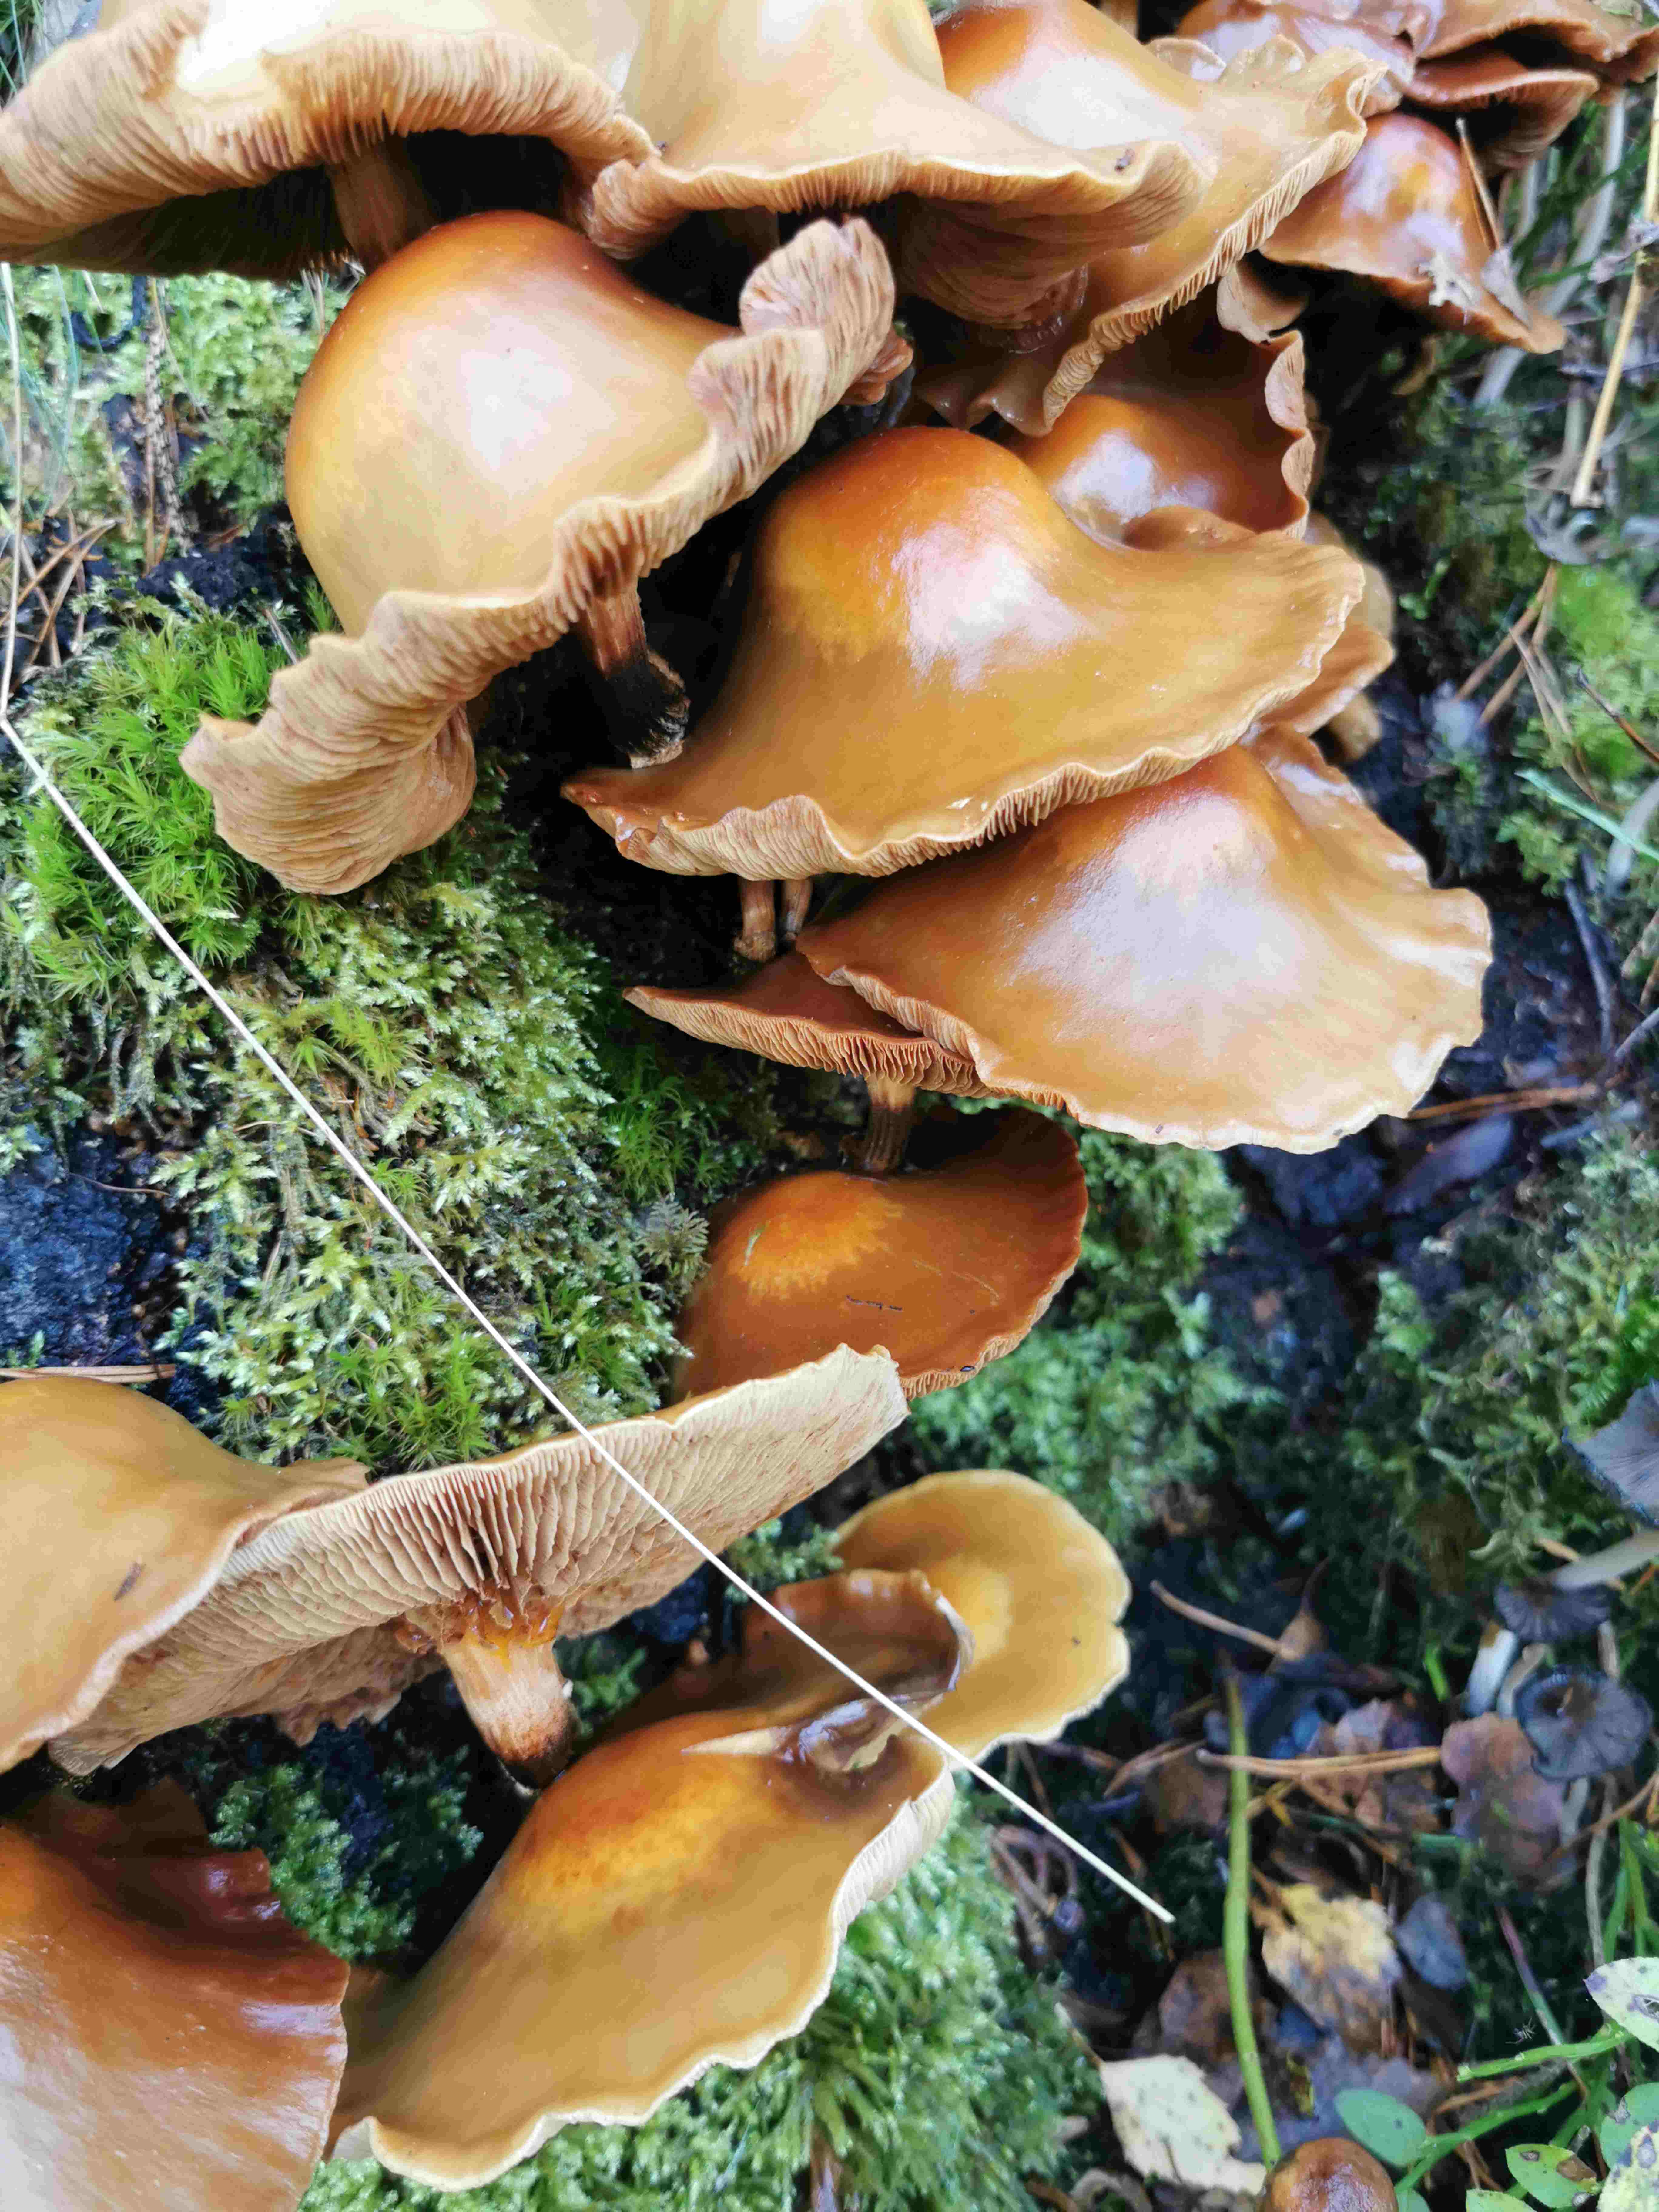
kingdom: Fungi
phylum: Basidiomycota
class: Agaricomycetes
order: Agaricales
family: Strophariaceae
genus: Kuehneromyces
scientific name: Kuehneromyces mutabilis
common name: foranderlig skælhat
